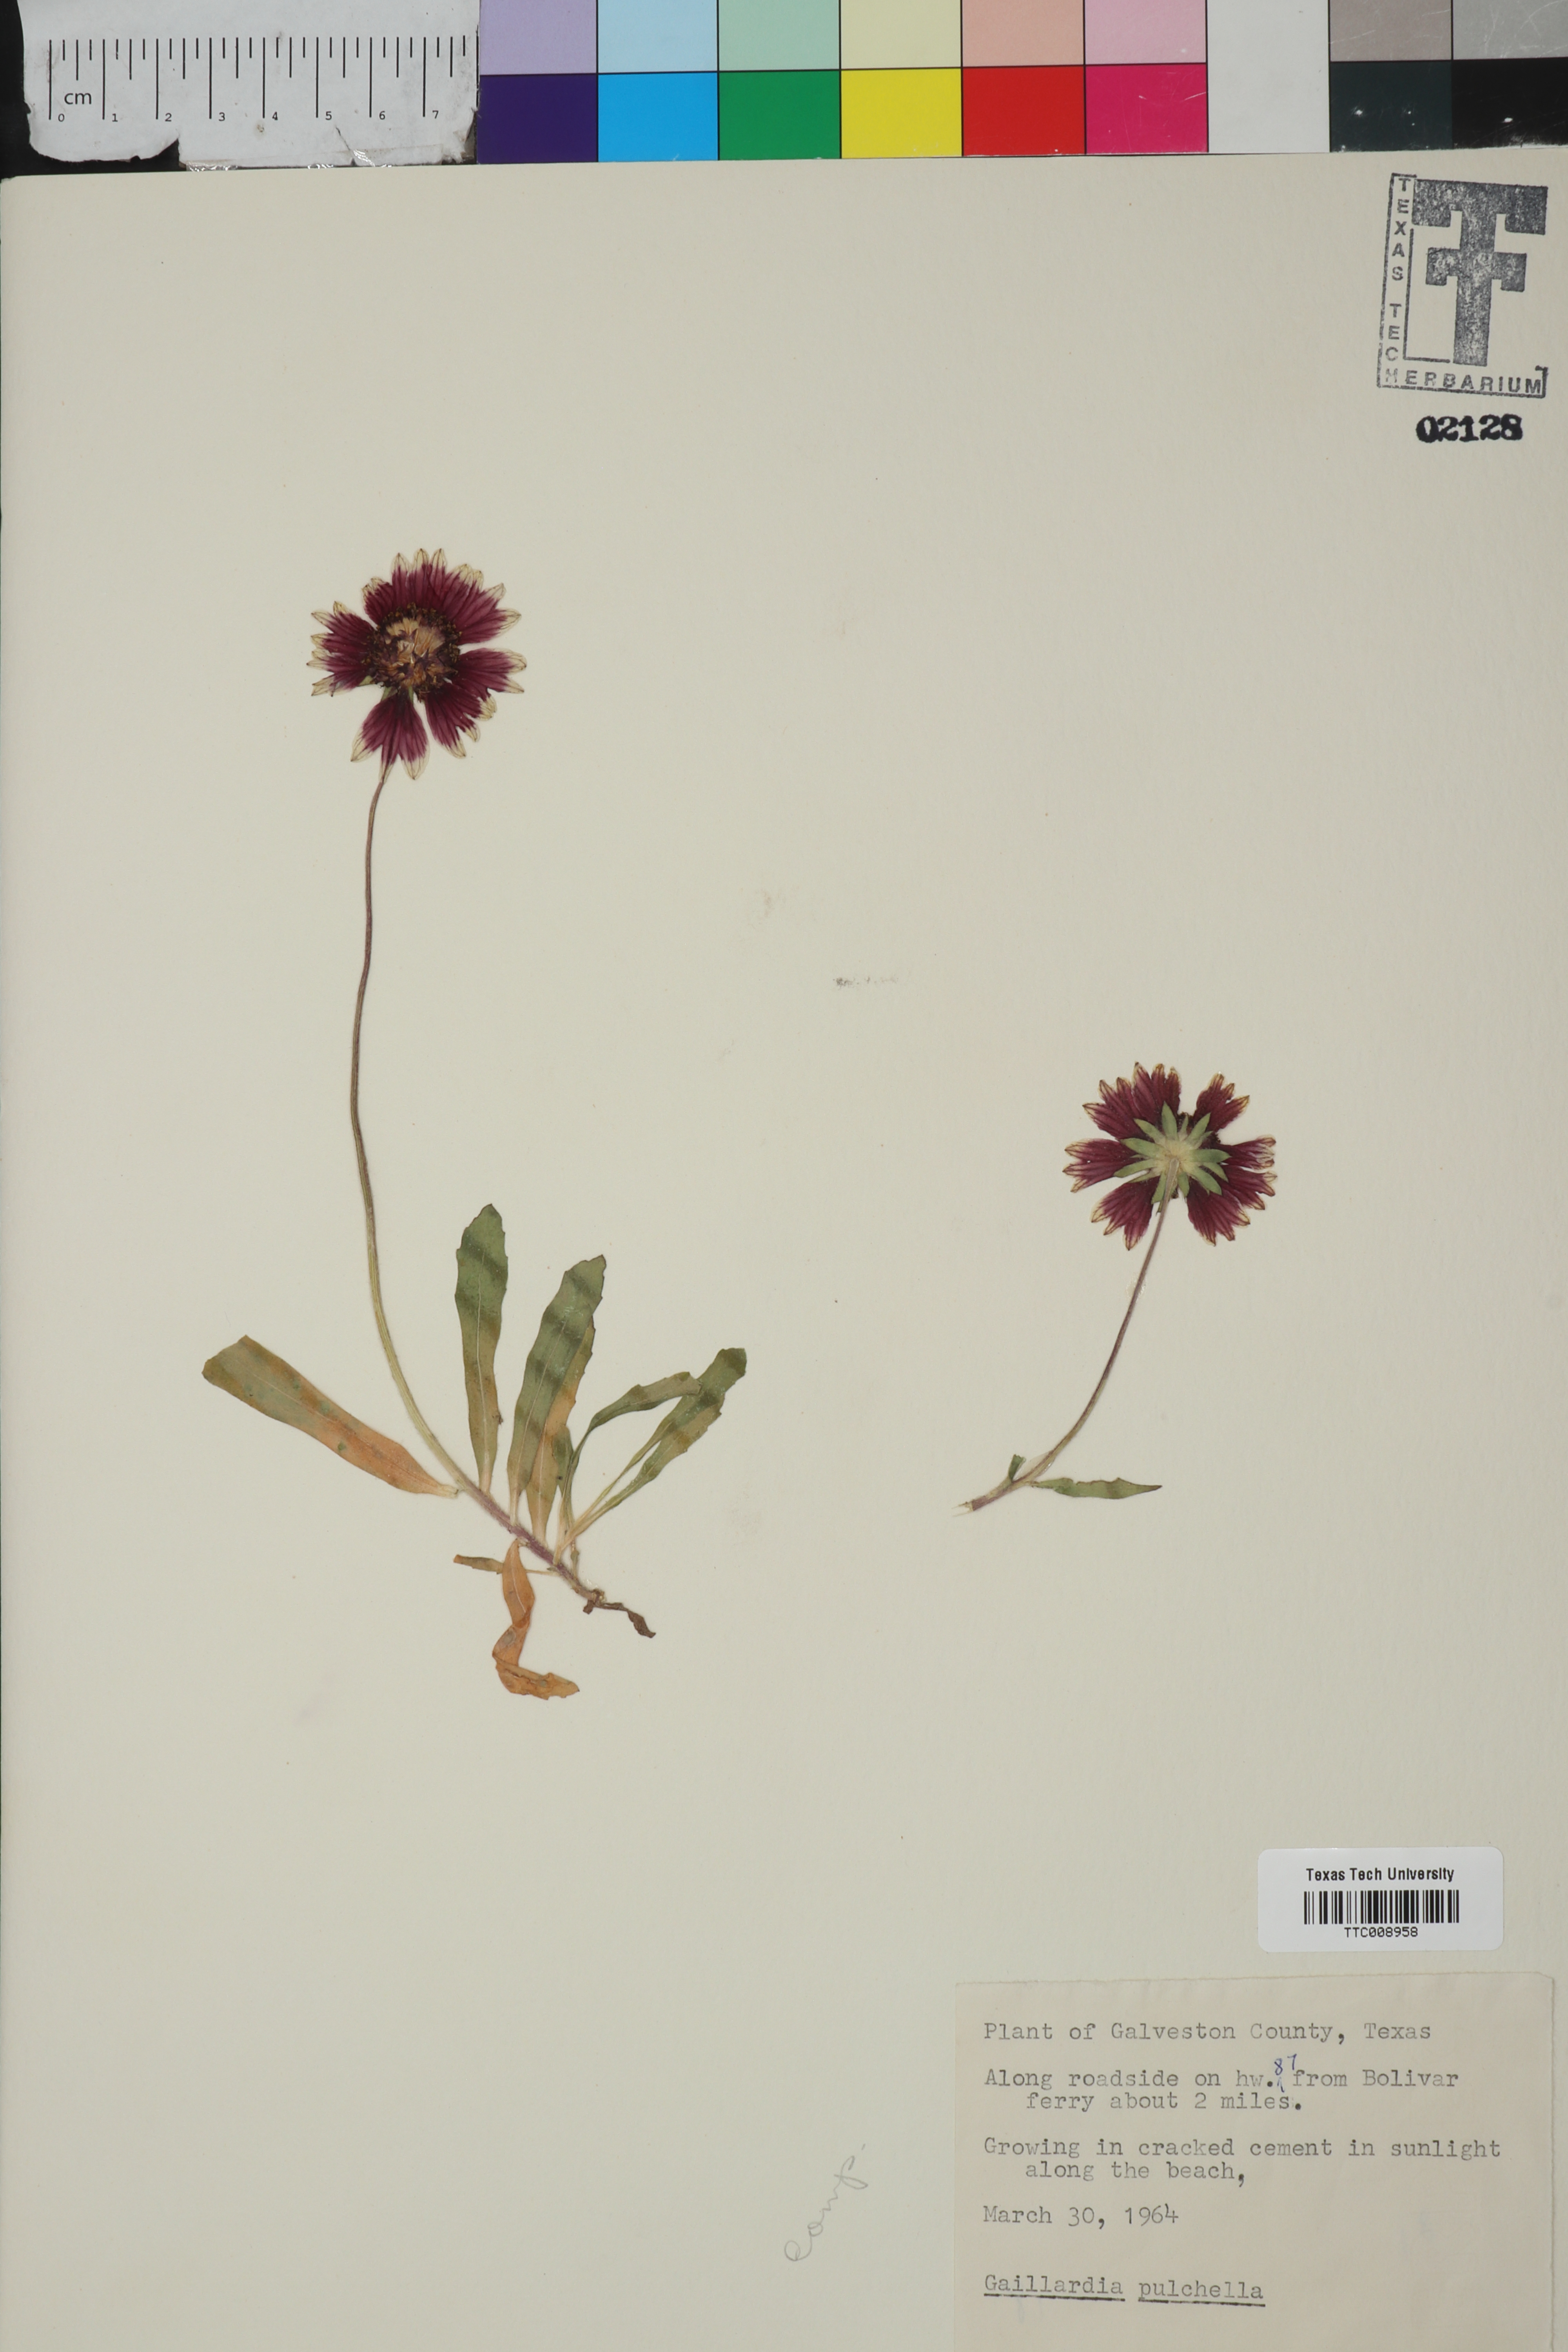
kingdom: Plantae
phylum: Tracheophyta
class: Magnoliopsida
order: Asterales
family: Asteraceae
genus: Gaillardia
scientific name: Gaillardia pulchella
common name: Firewheel
